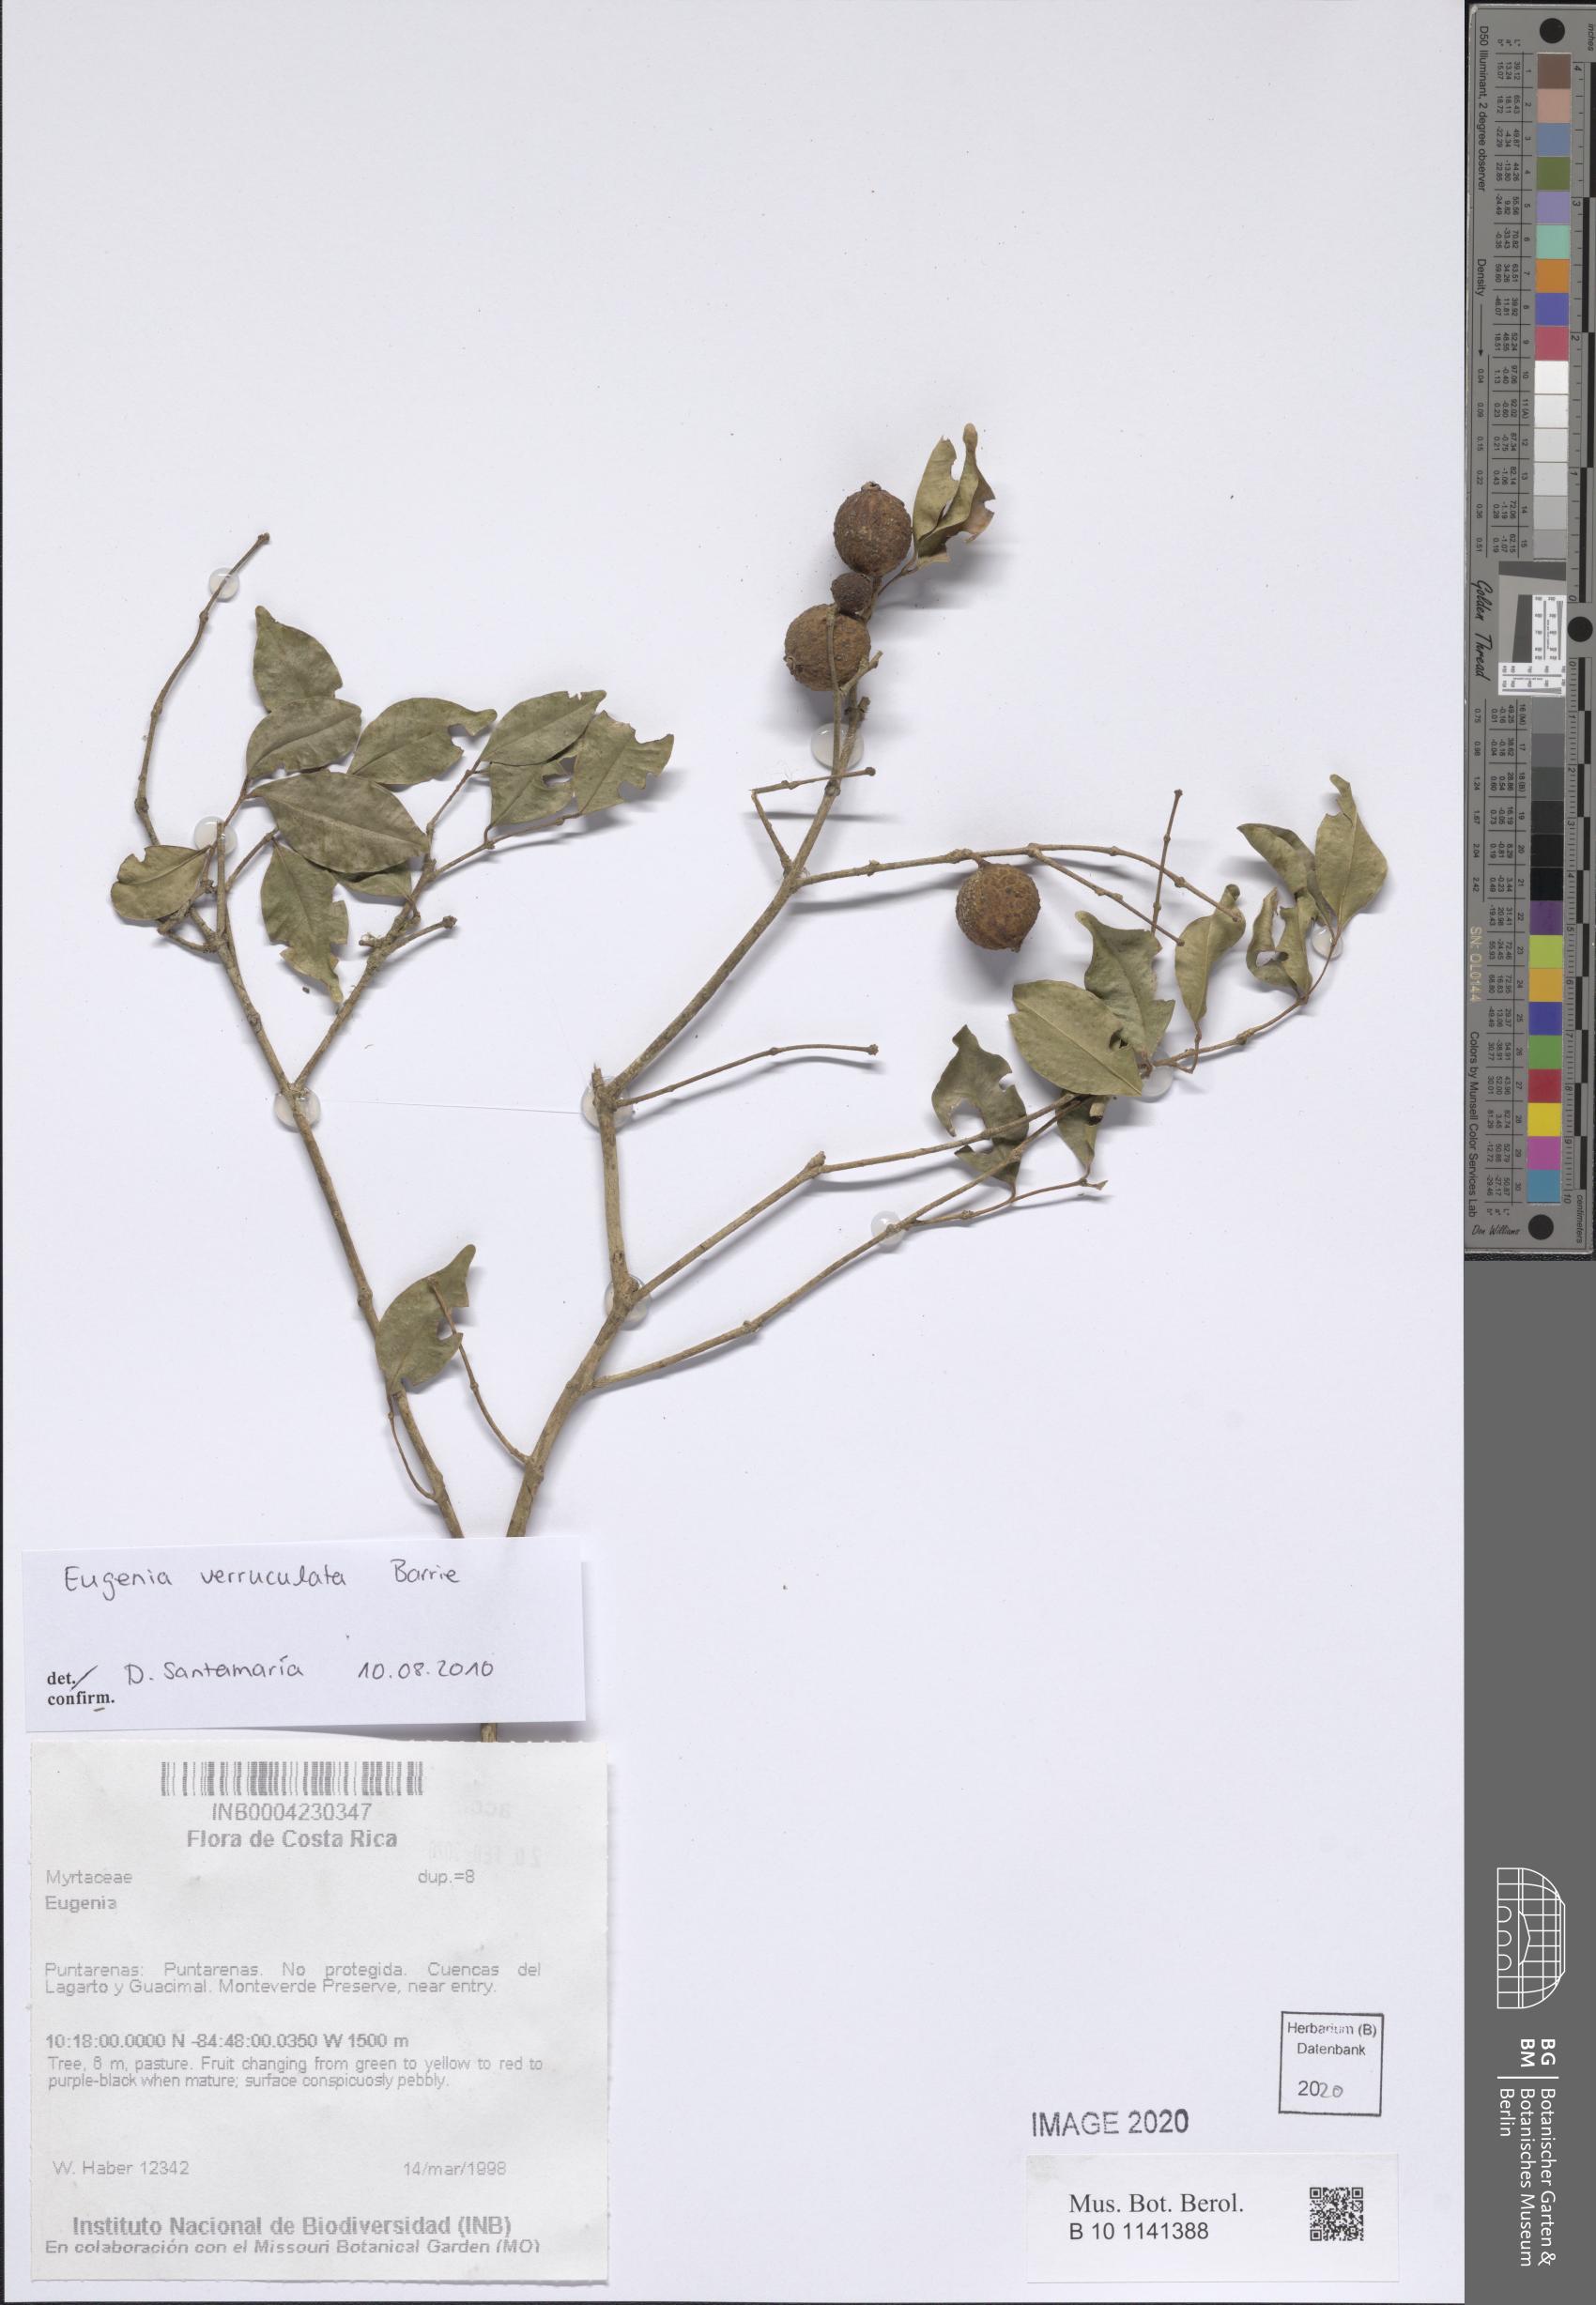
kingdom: Plantae
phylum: Tracheophyta
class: Magnoliopsida
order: Myrtales
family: Myrtaceae
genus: Eugenia
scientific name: Eugenia verruculata
